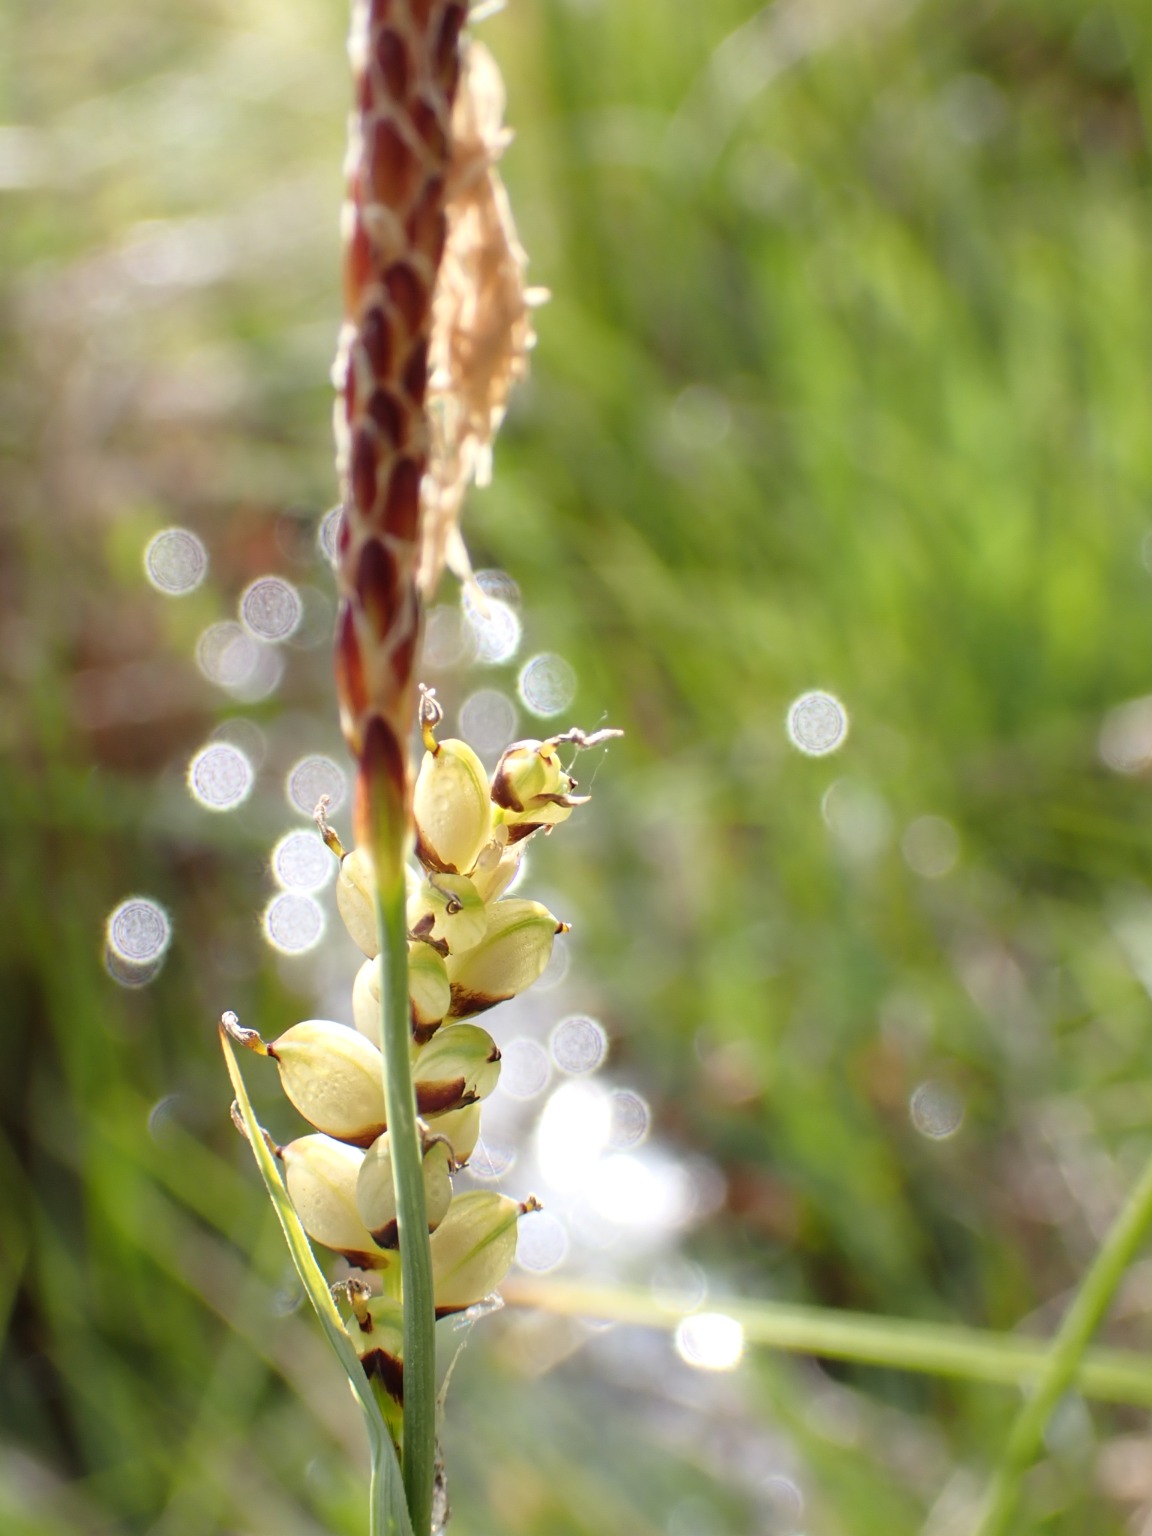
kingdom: Plantae
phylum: Tracheophyta
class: Liliopsida
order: Poales
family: Cyperaceae
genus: Carex
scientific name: Carex panicea
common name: Hirse-star
